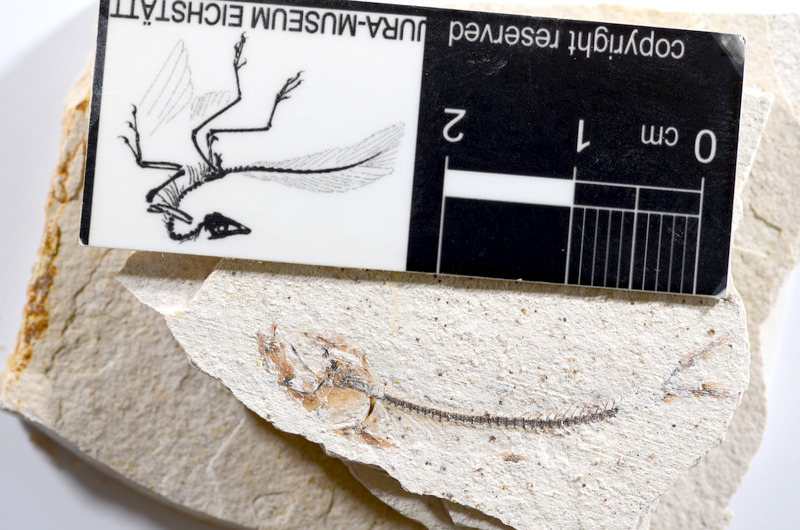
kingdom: Animalia
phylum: Chordata
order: Salmoniformes
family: Orthogonikleithridae
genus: Orthogonikleithrus
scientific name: Orthogonikleithrus hoelli
